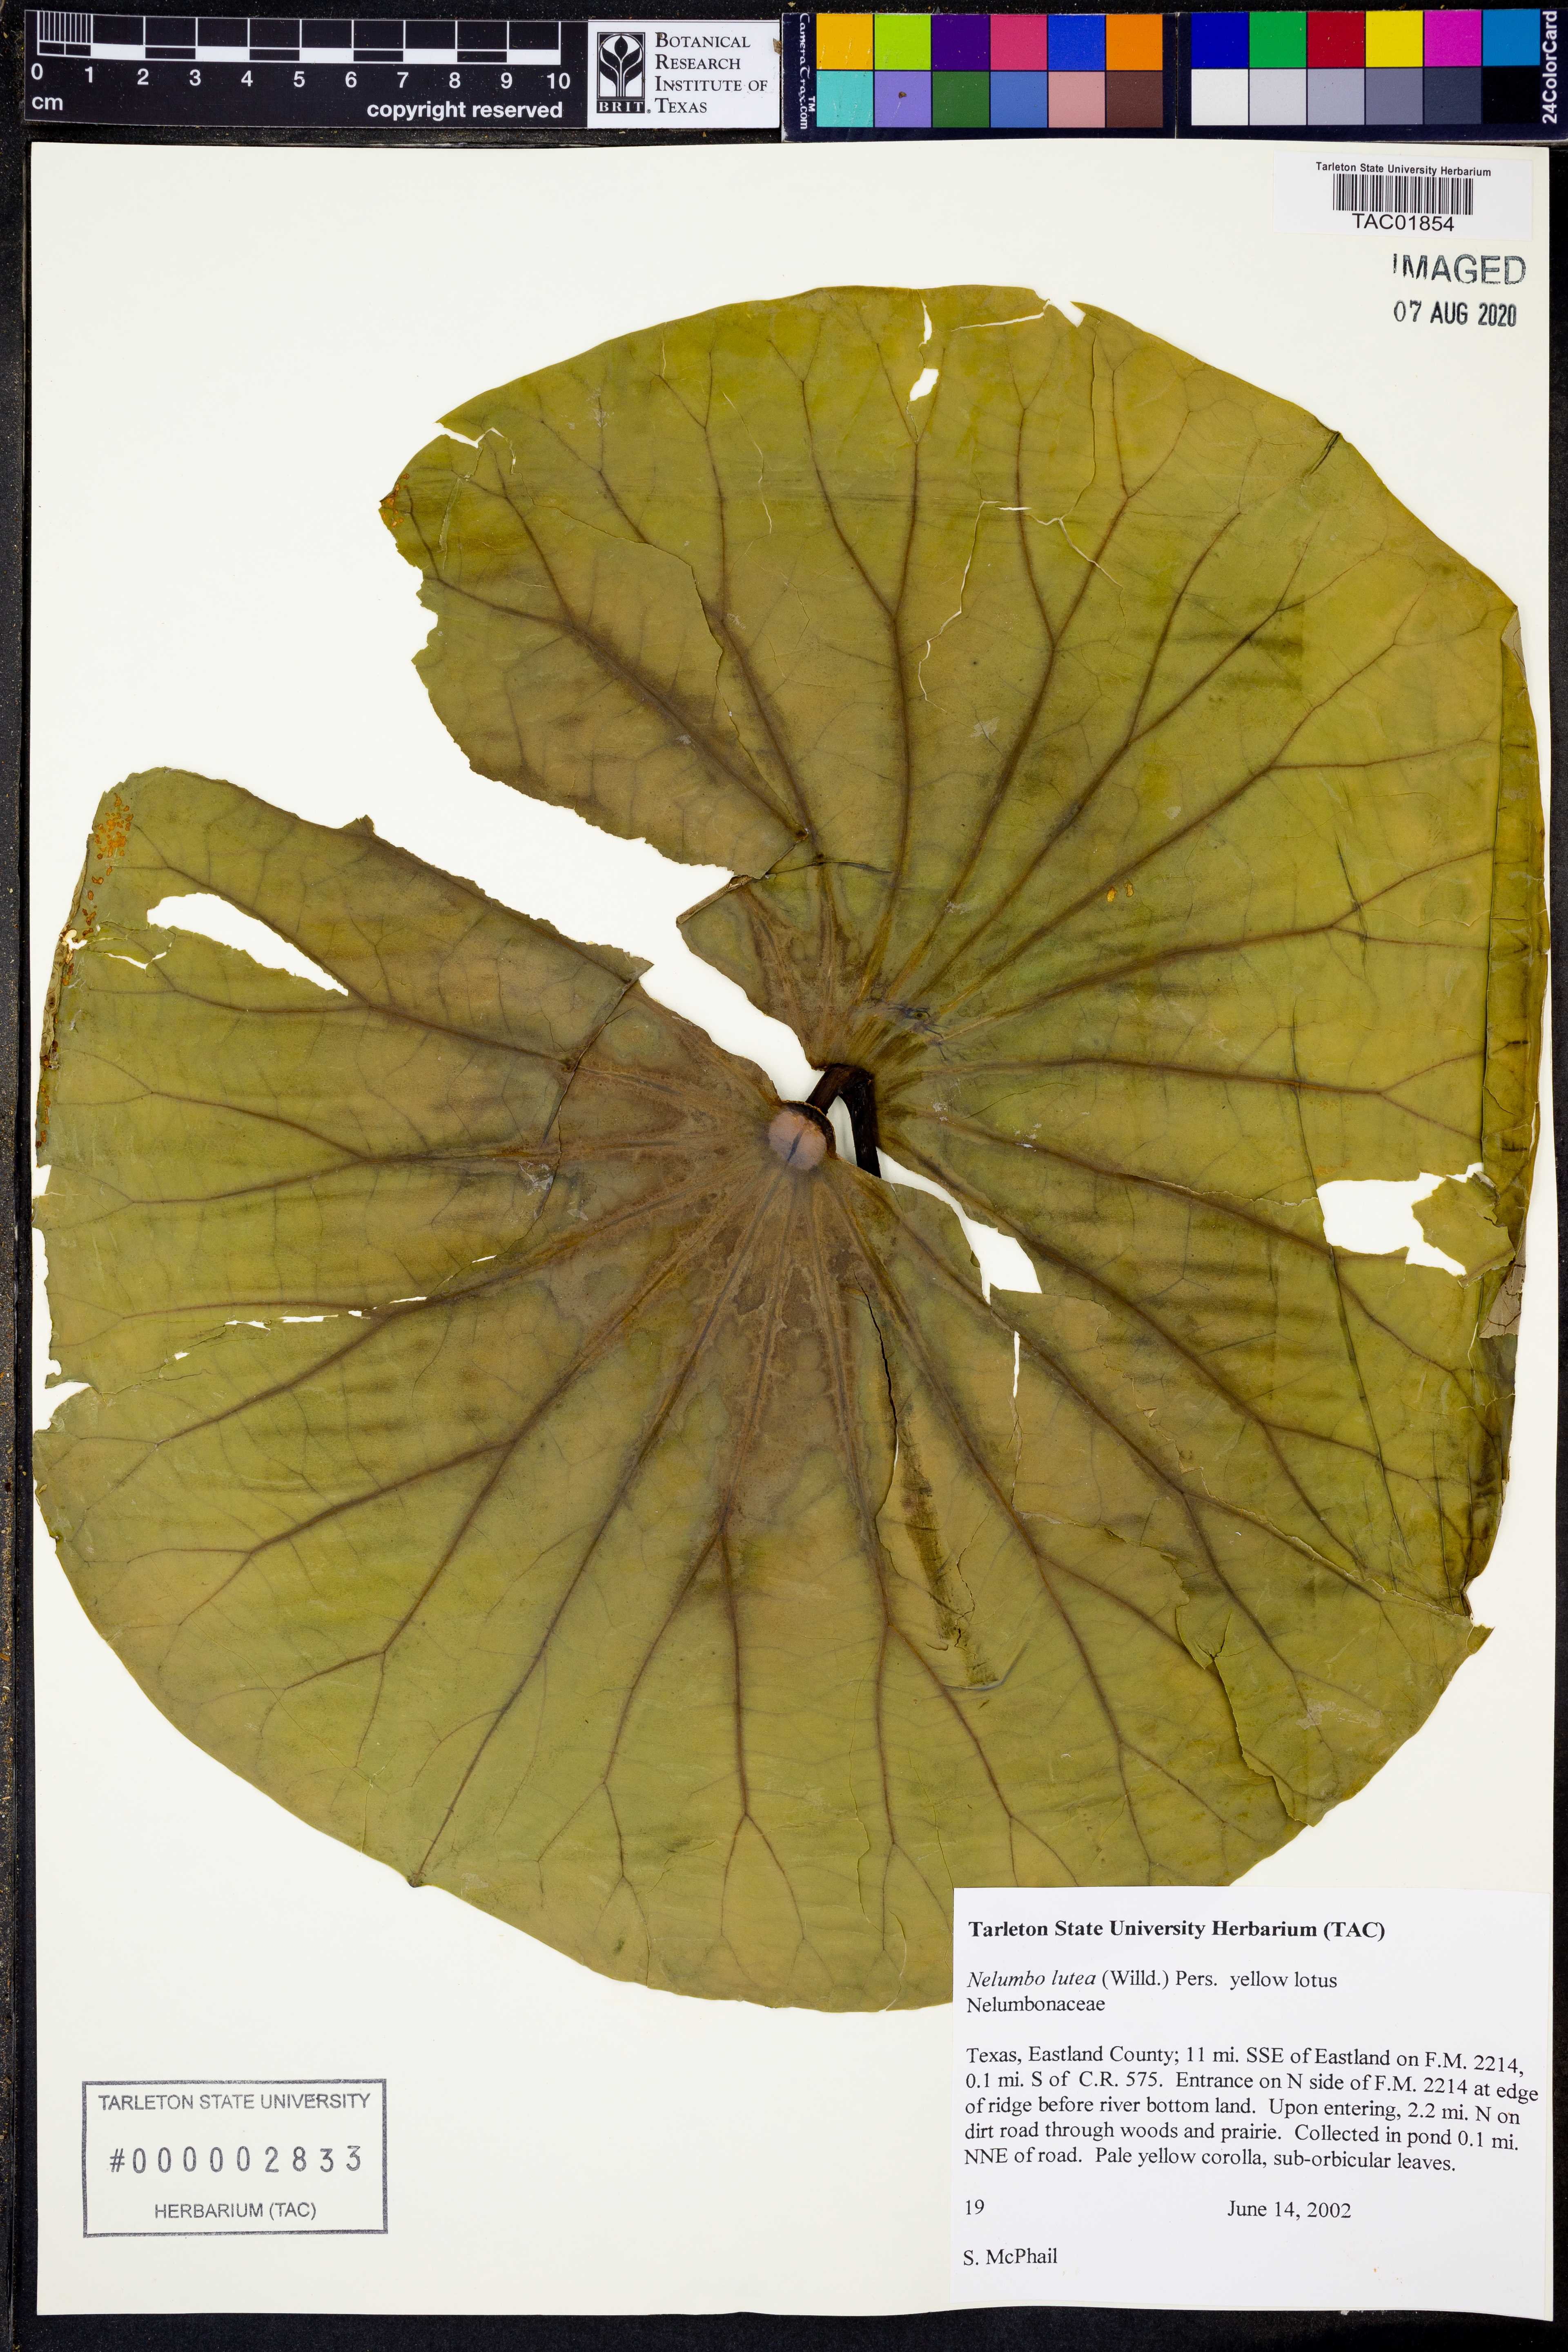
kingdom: Plantae
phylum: Tracheophyta
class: Magnoliopsida
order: Proteales
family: Nelumbonaceae
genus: Nelumbo
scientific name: Nelumbo lutea
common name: American lotus
